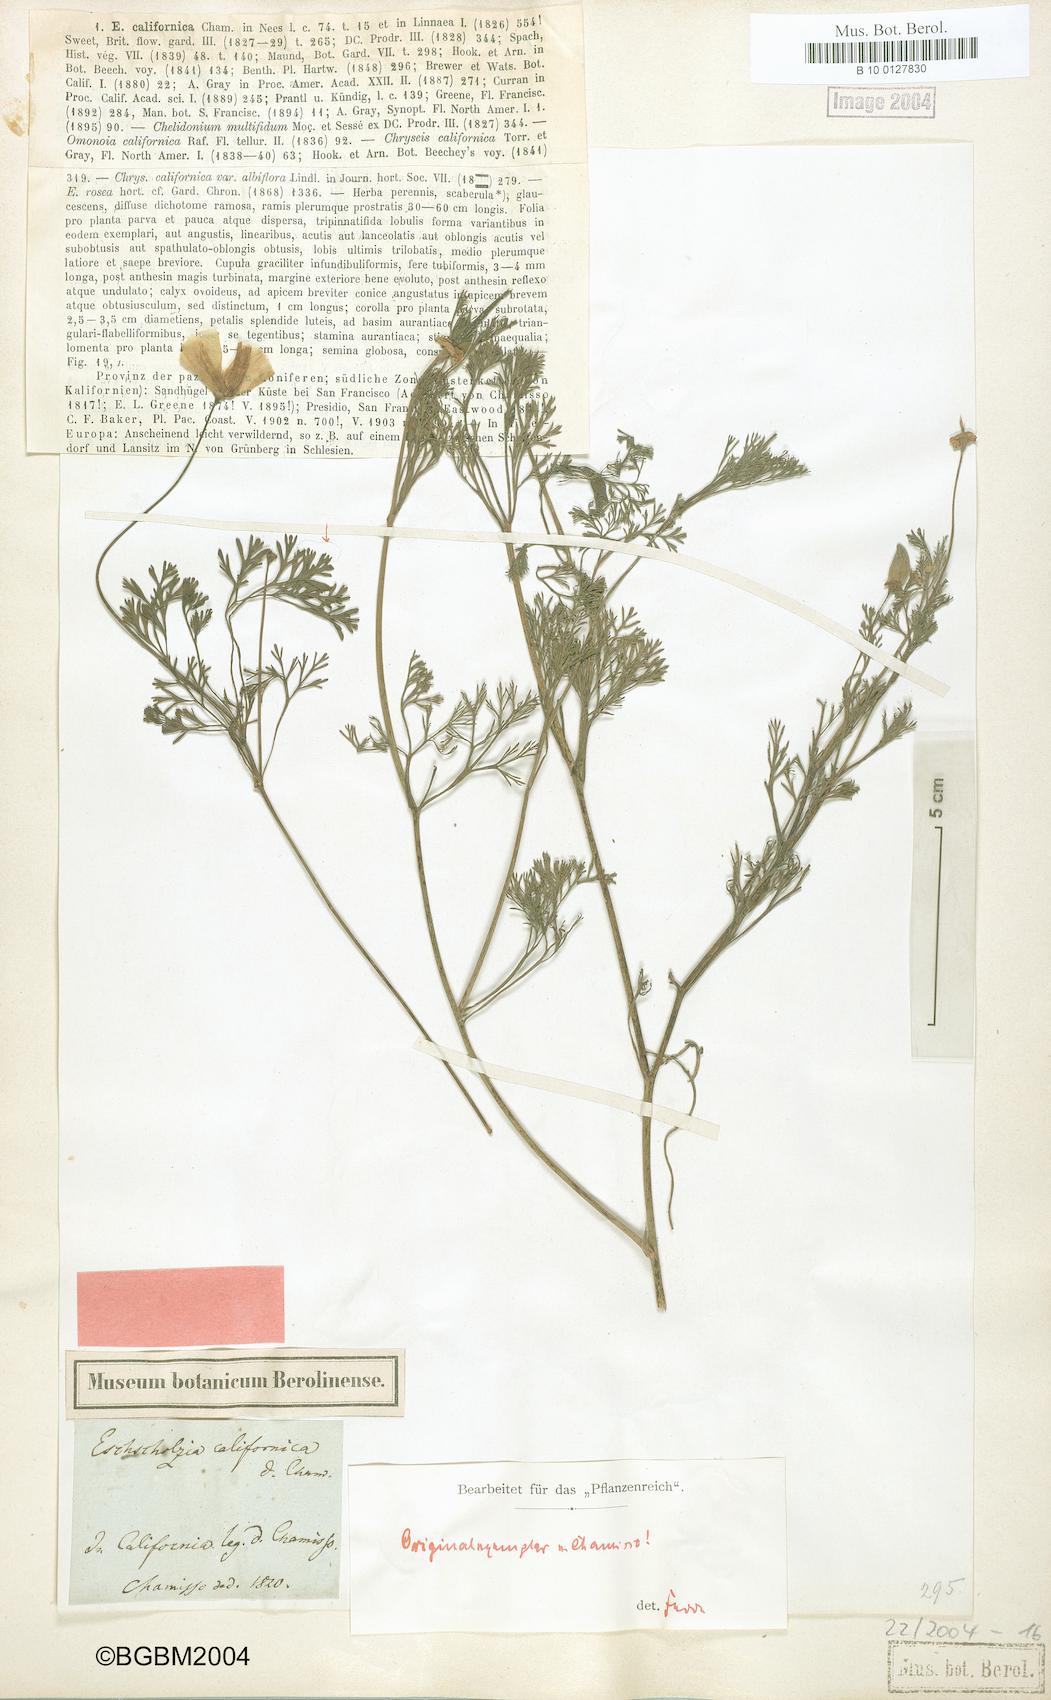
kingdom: Plantae
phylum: Tracheophyta
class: Magnoliopsida
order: Ranunculales
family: Papaveraceae
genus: Eschscholzia
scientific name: Eschscholzia californica
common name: California poppy
